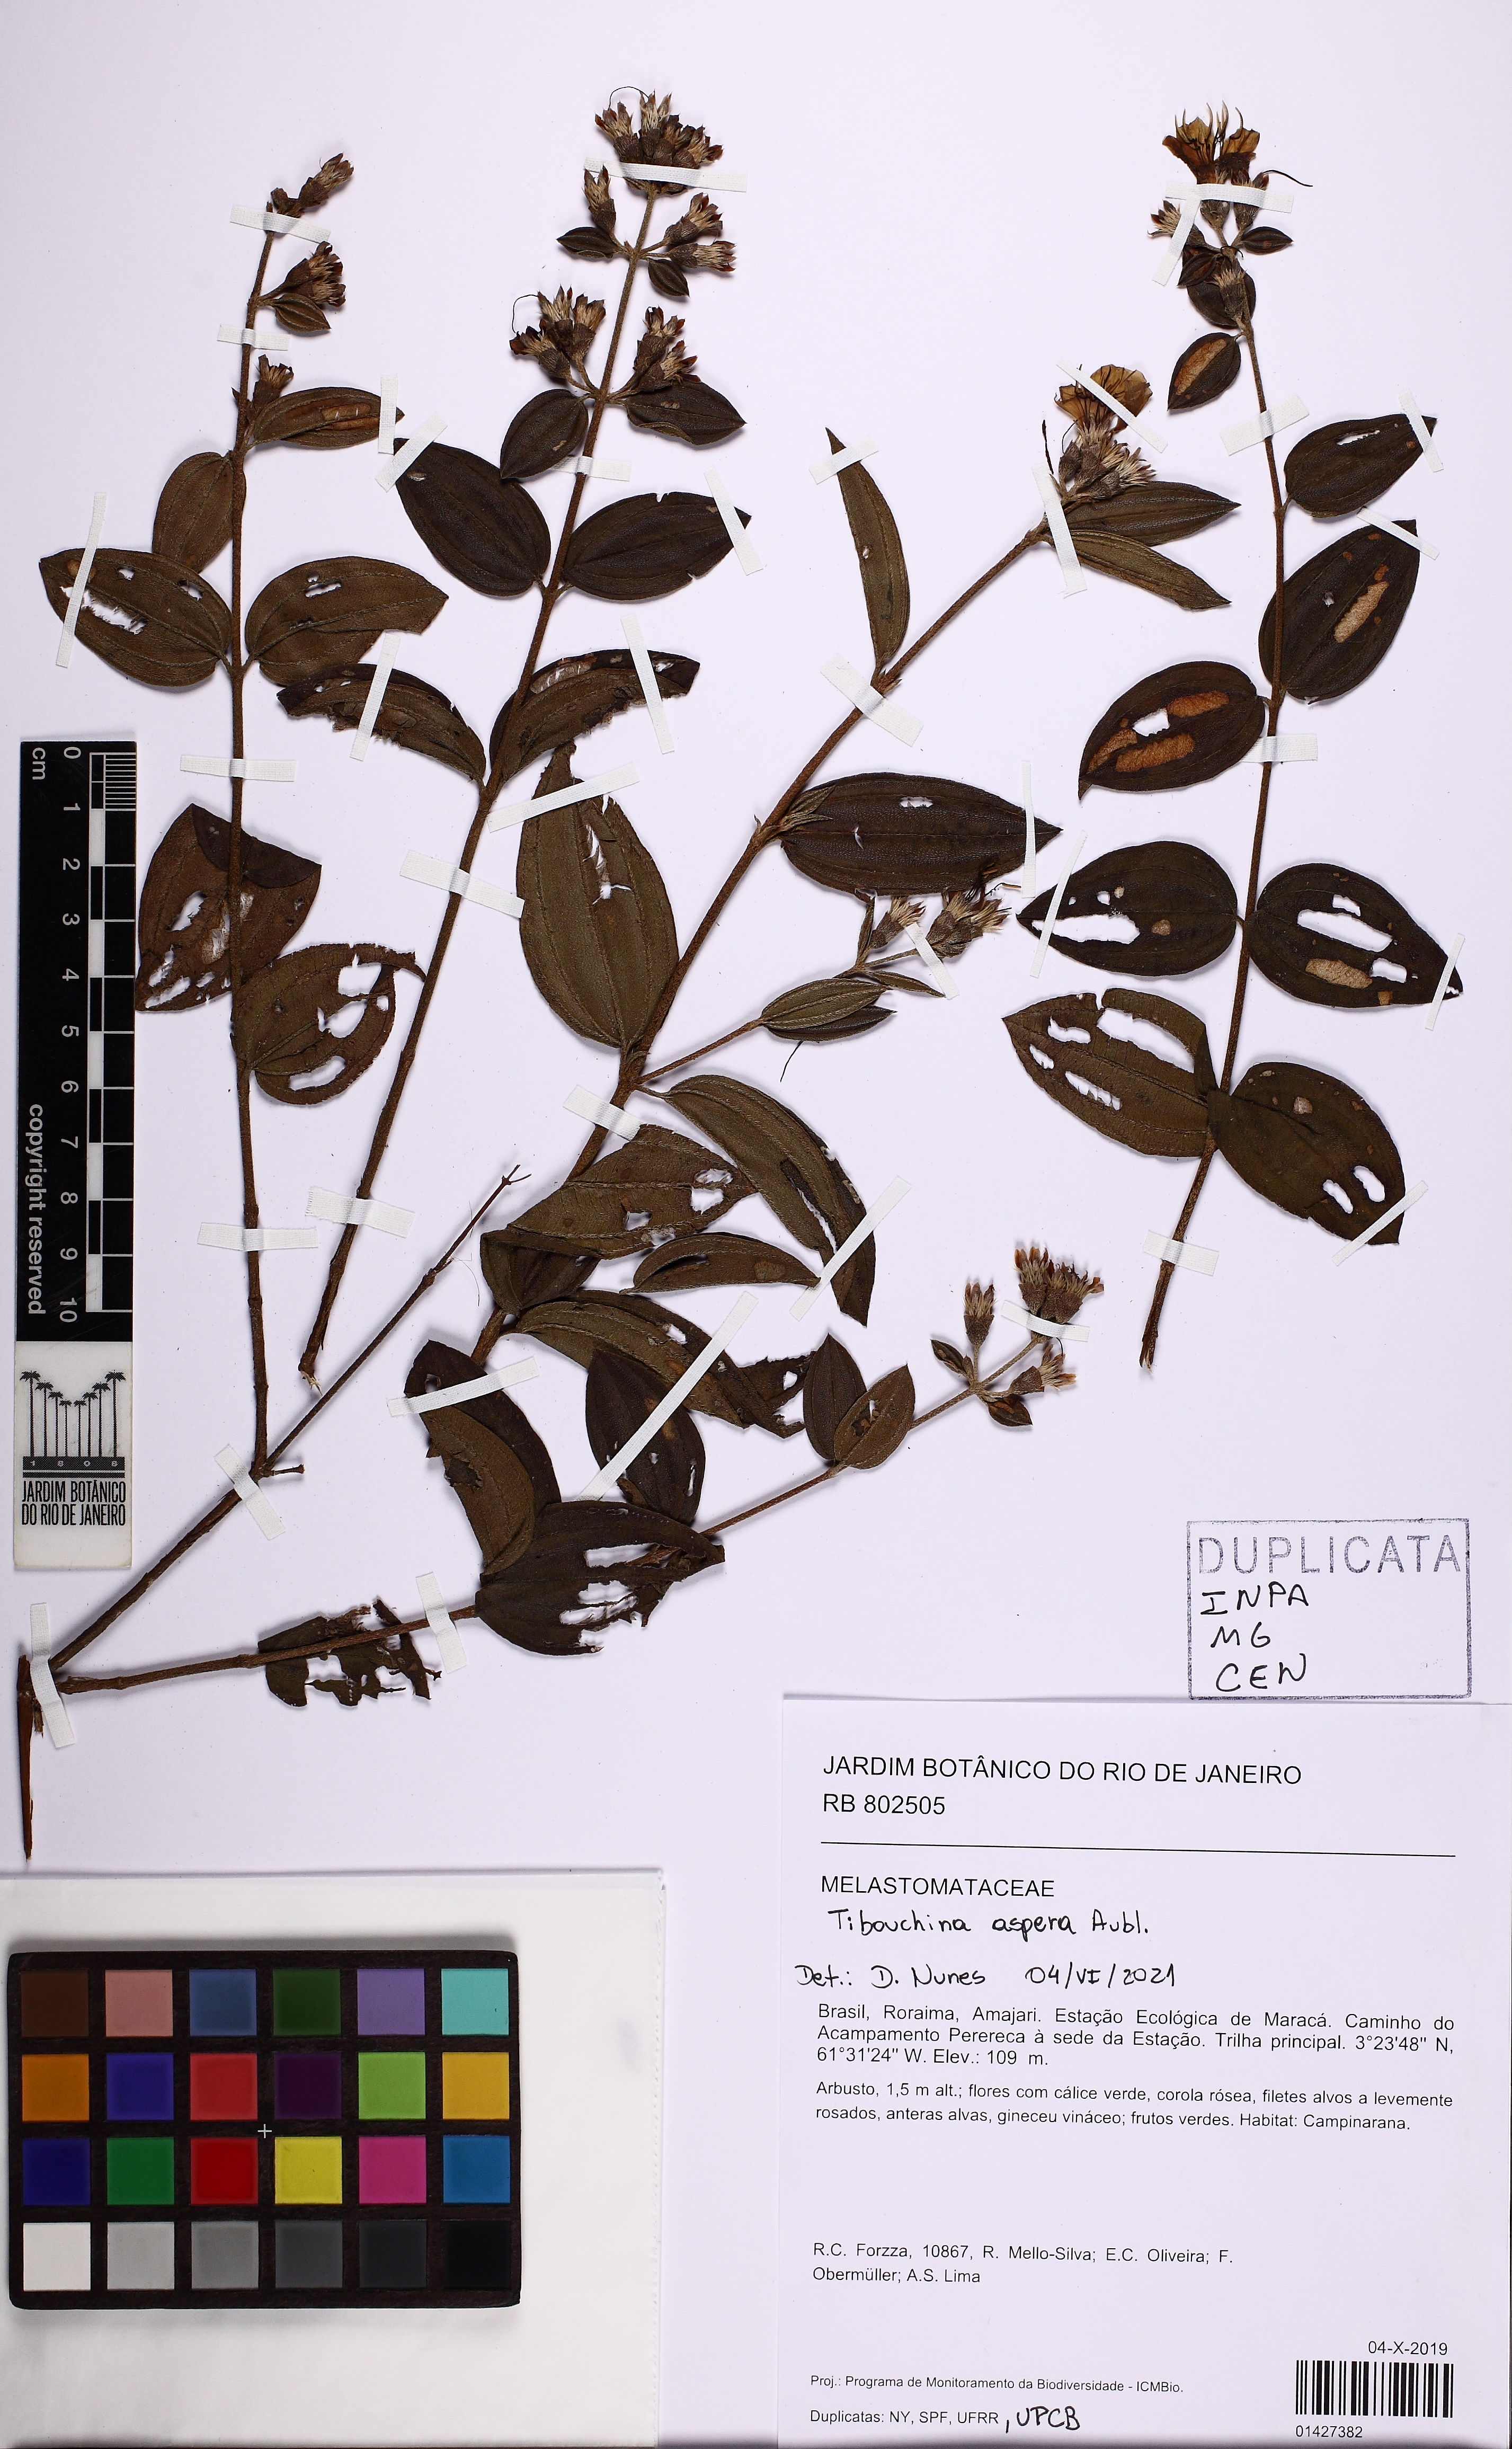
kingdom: Plantae
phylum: Tracheophyta
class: Magnoliopsida
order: Myrtales
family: Melastomataceae
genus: Tibouchina
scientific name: Tibouchina aspera
